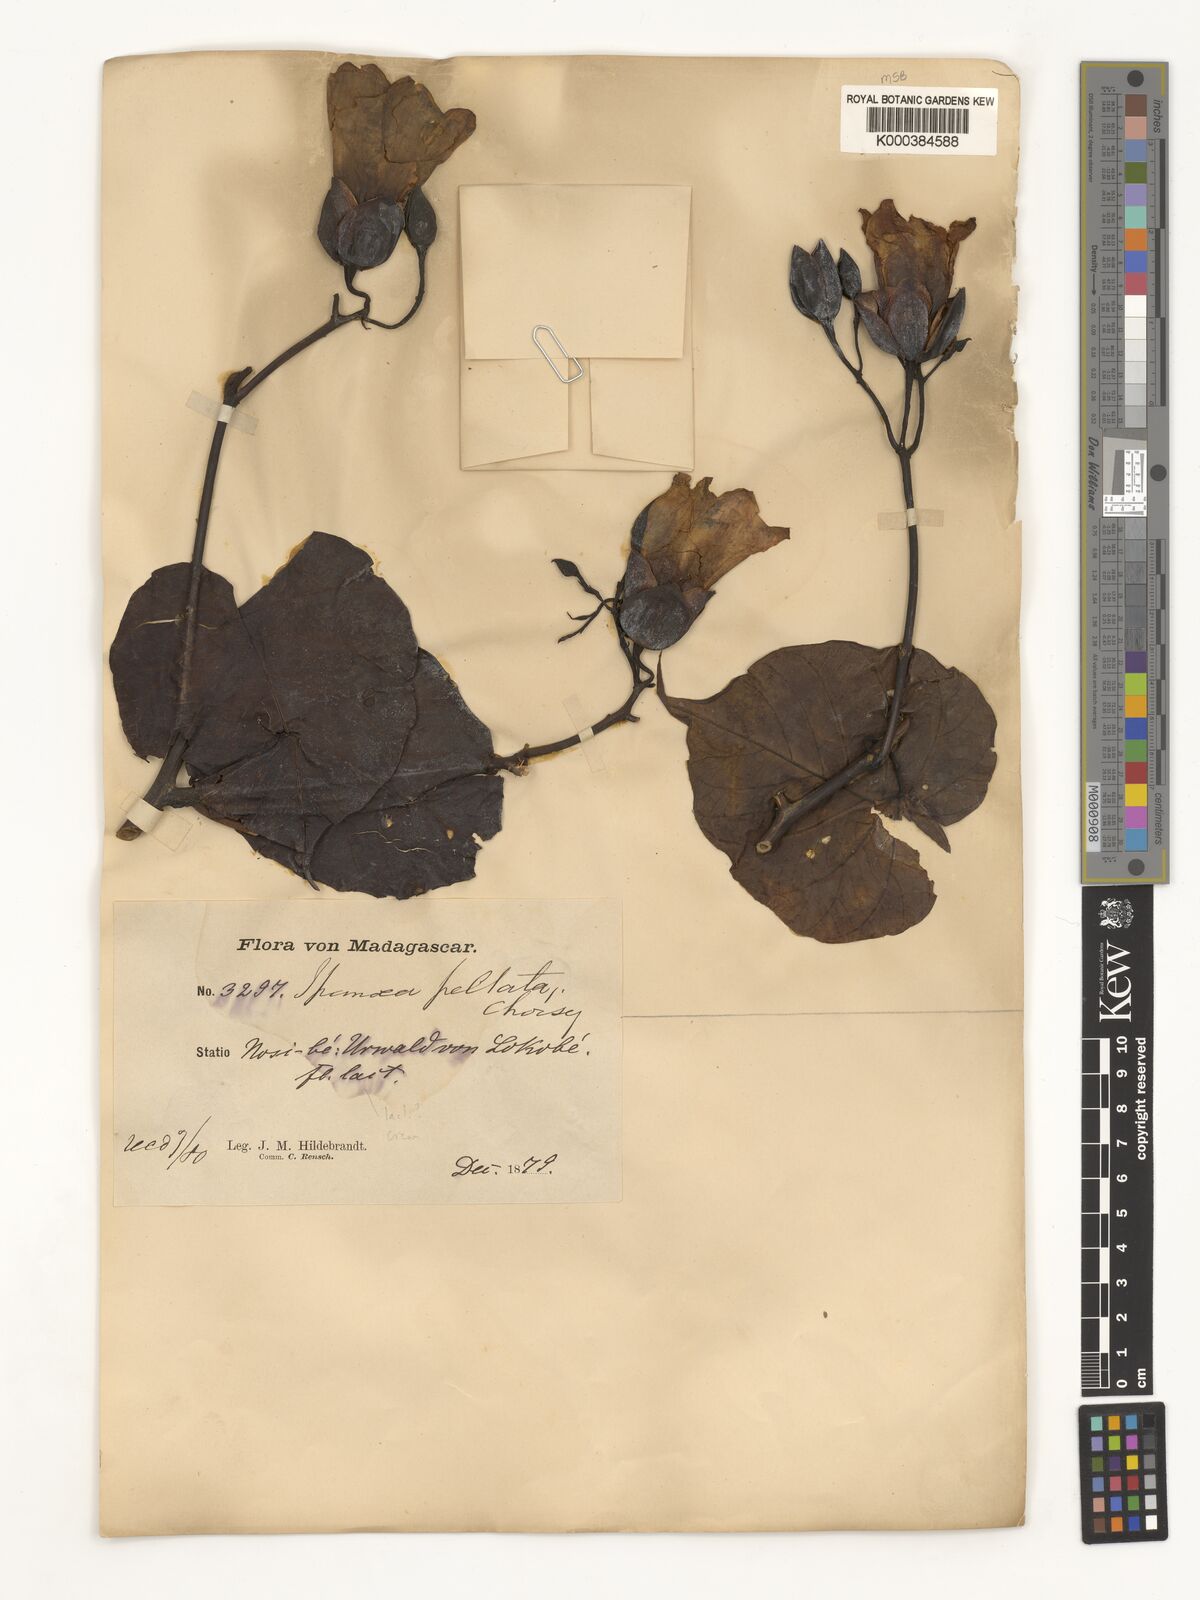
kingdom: Plantae
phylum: Tracheophyta
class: Magnoliopsida
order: Solanales
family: Convolvulaceae
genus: Decalobanthus
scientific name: Decalobanthus peltatus
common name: Merremia
